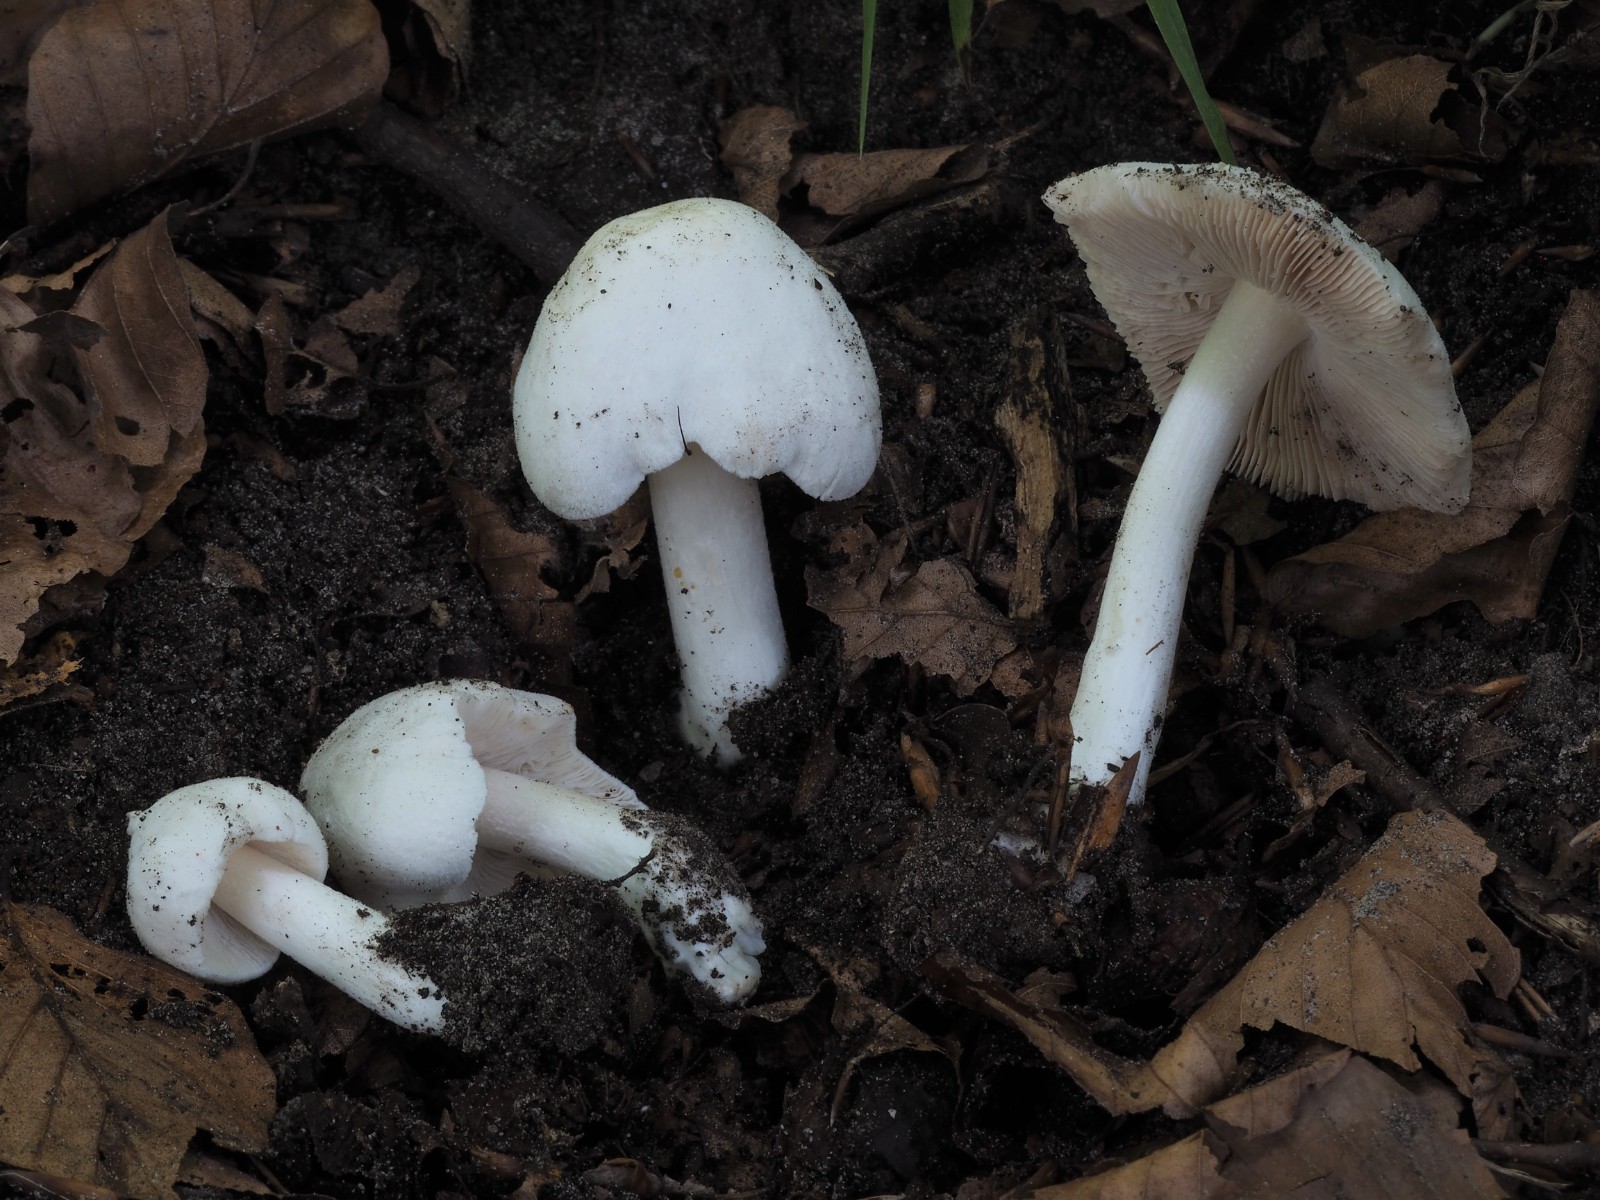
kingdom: Fungi
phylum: Basidiomycota
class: Agaricomycetes
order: Agaricales
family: Pluteaceae
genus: Pluteus
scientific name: Pluteus
